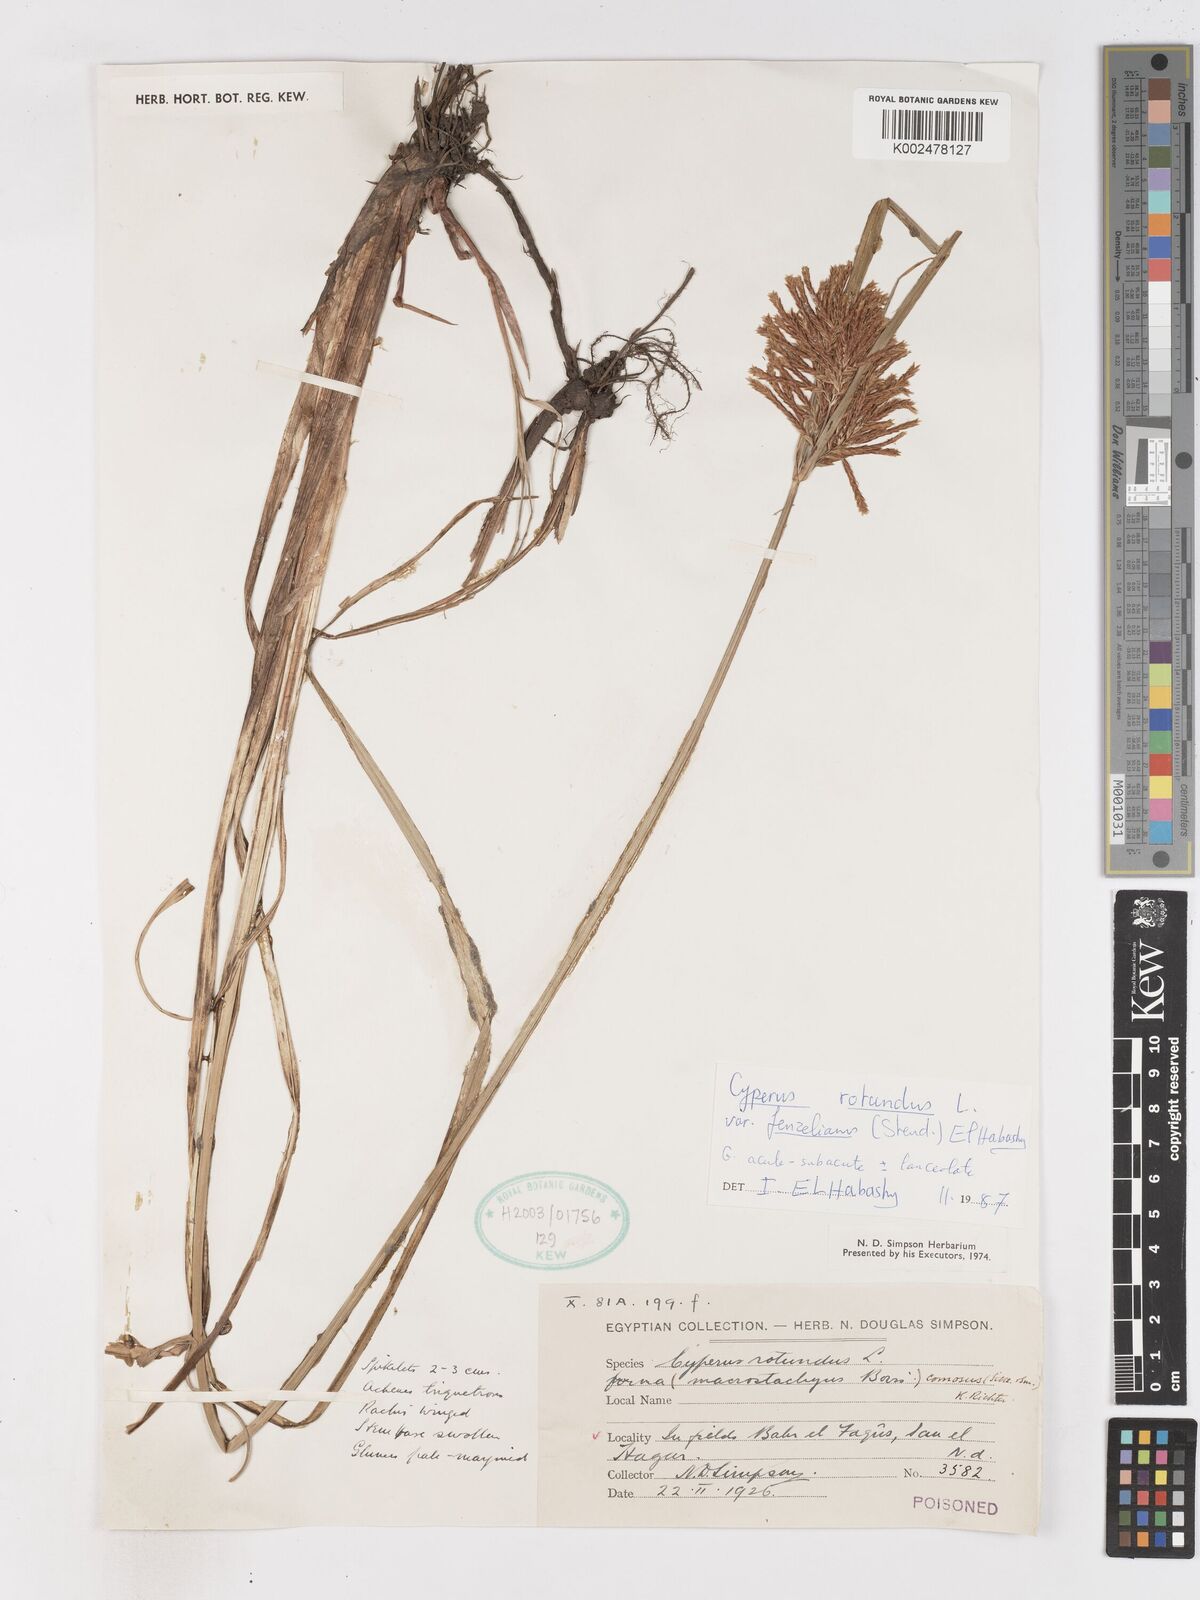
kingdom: Plantae
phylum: Tracheophyta
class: Liliopsida
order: Poales
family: Cyperaceae
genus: Cyperus
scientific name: Cyperus rotundus
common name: Nutgrass
